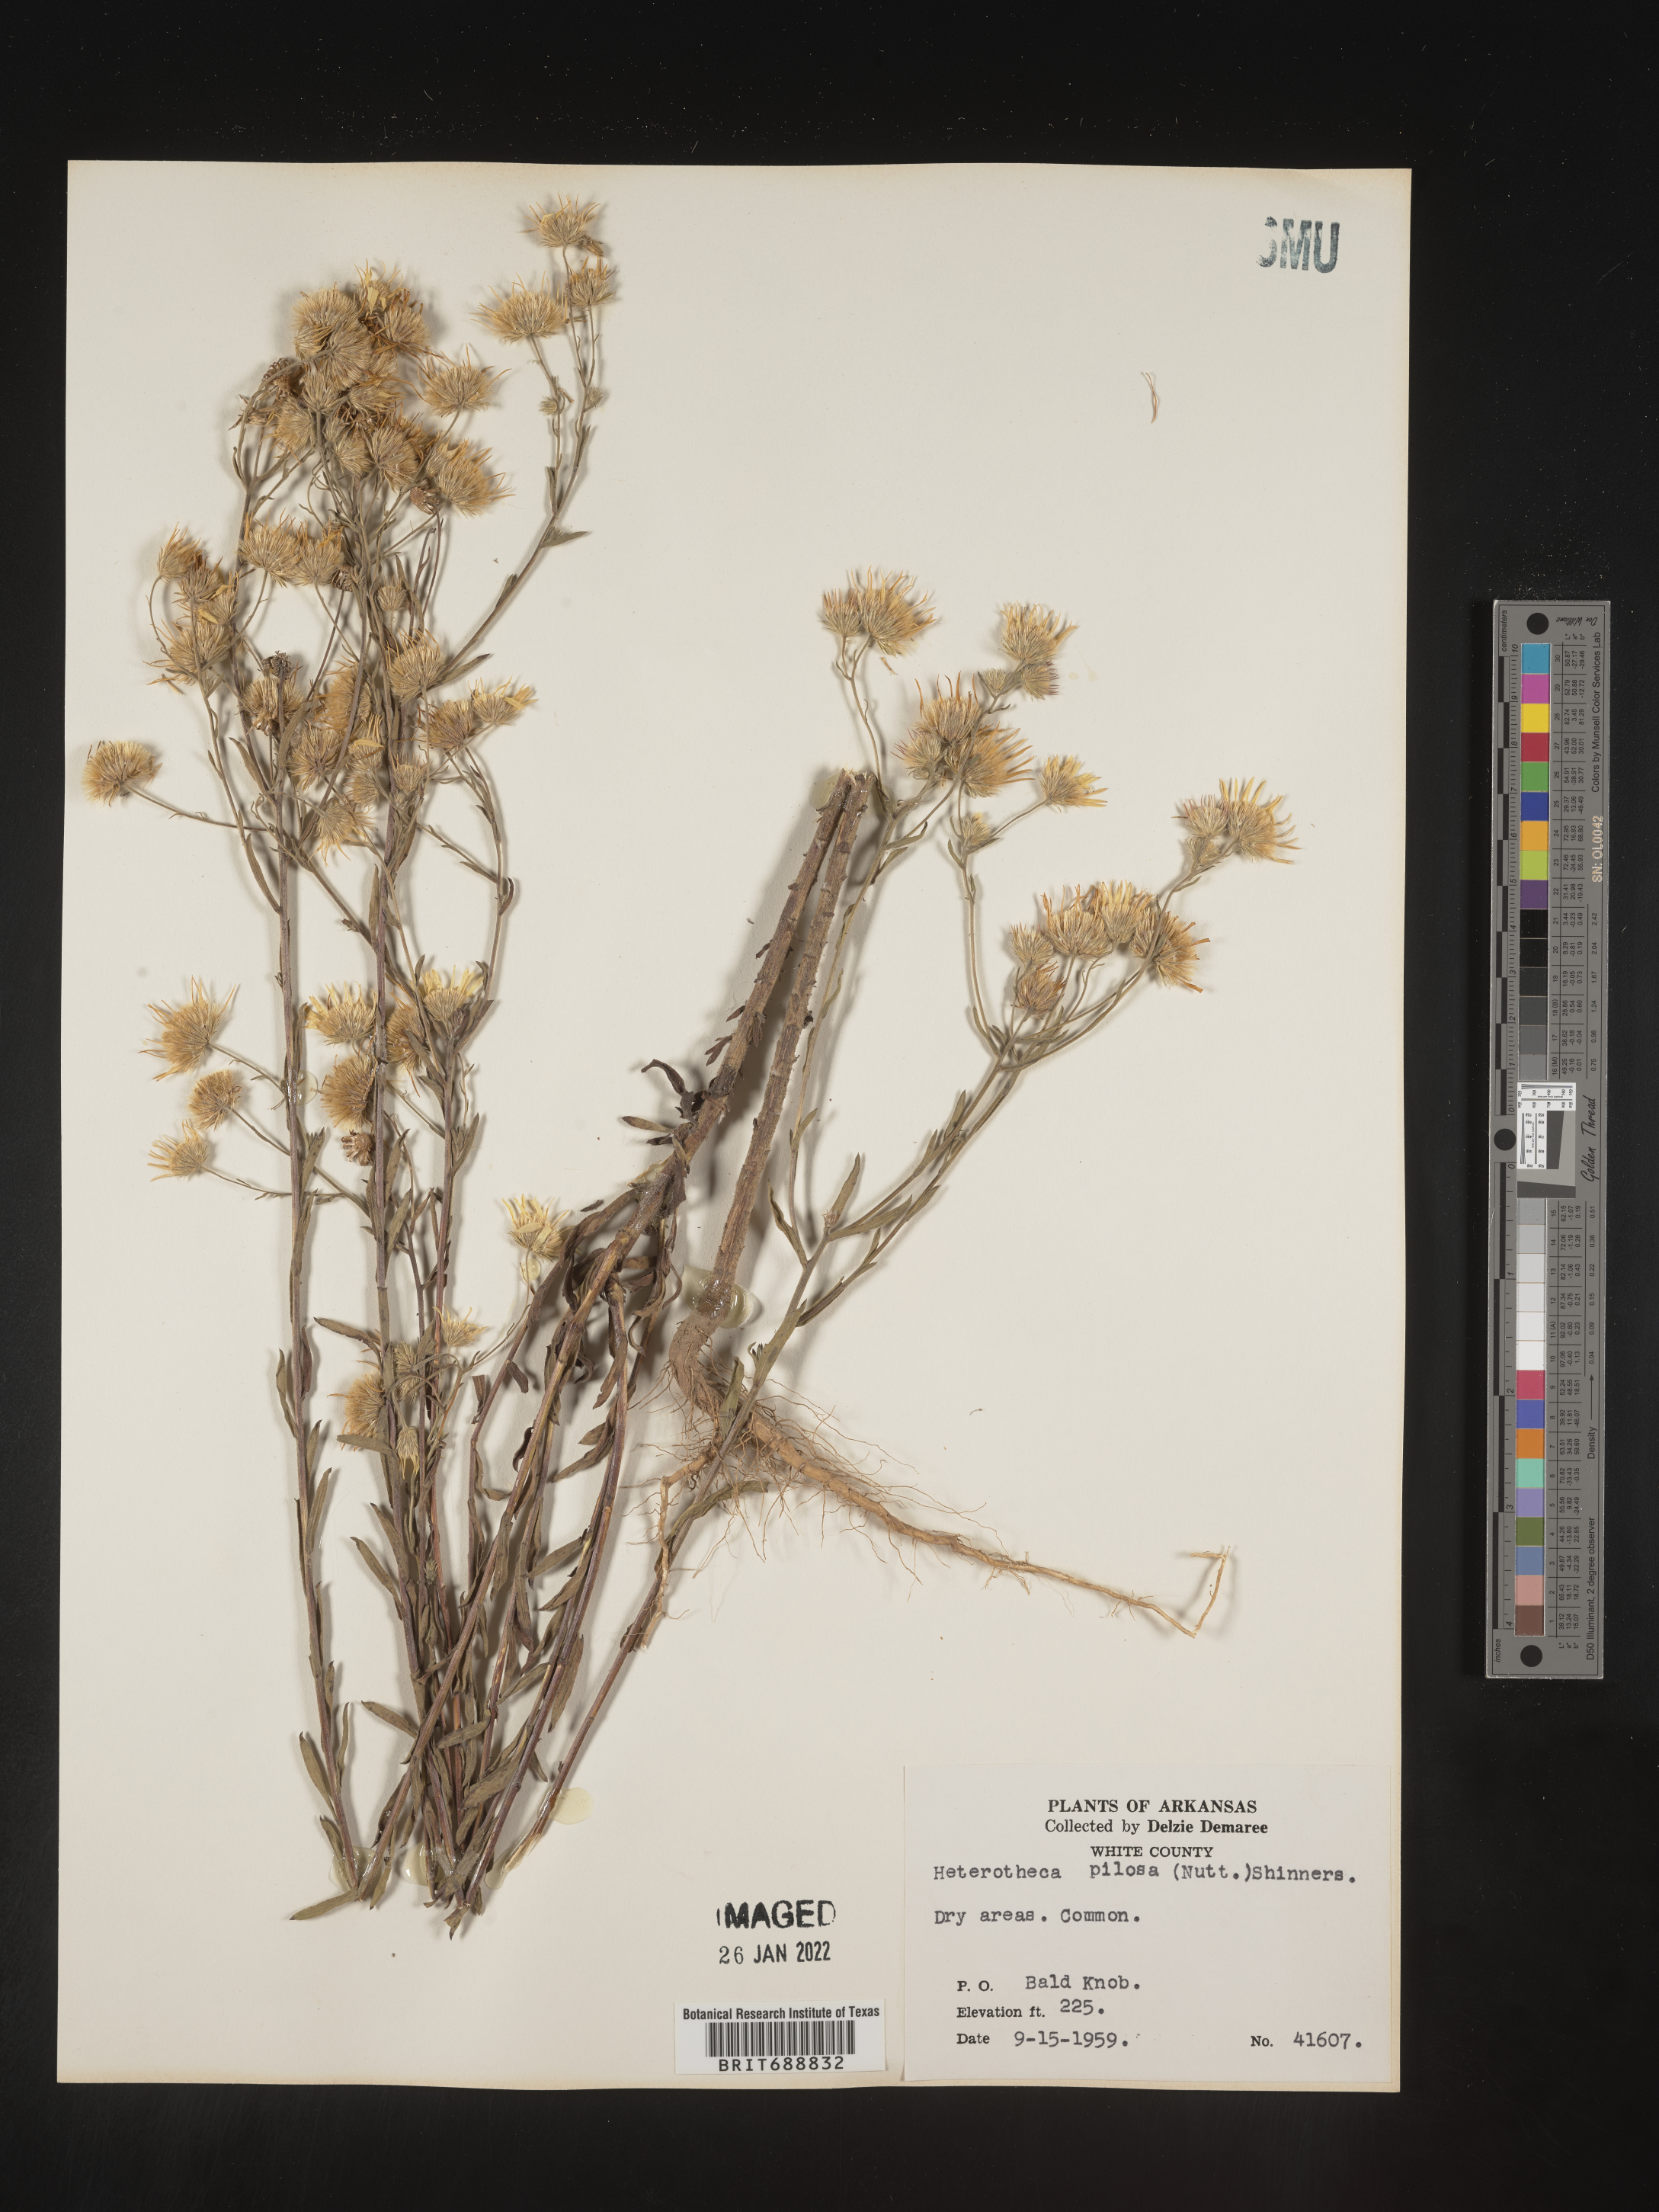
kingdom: Plantae
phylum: Tracheophyta
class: Magnoliopsida
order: Asterales
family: Asteraceae
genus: Bradburia
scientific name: Bradburia pilosa
